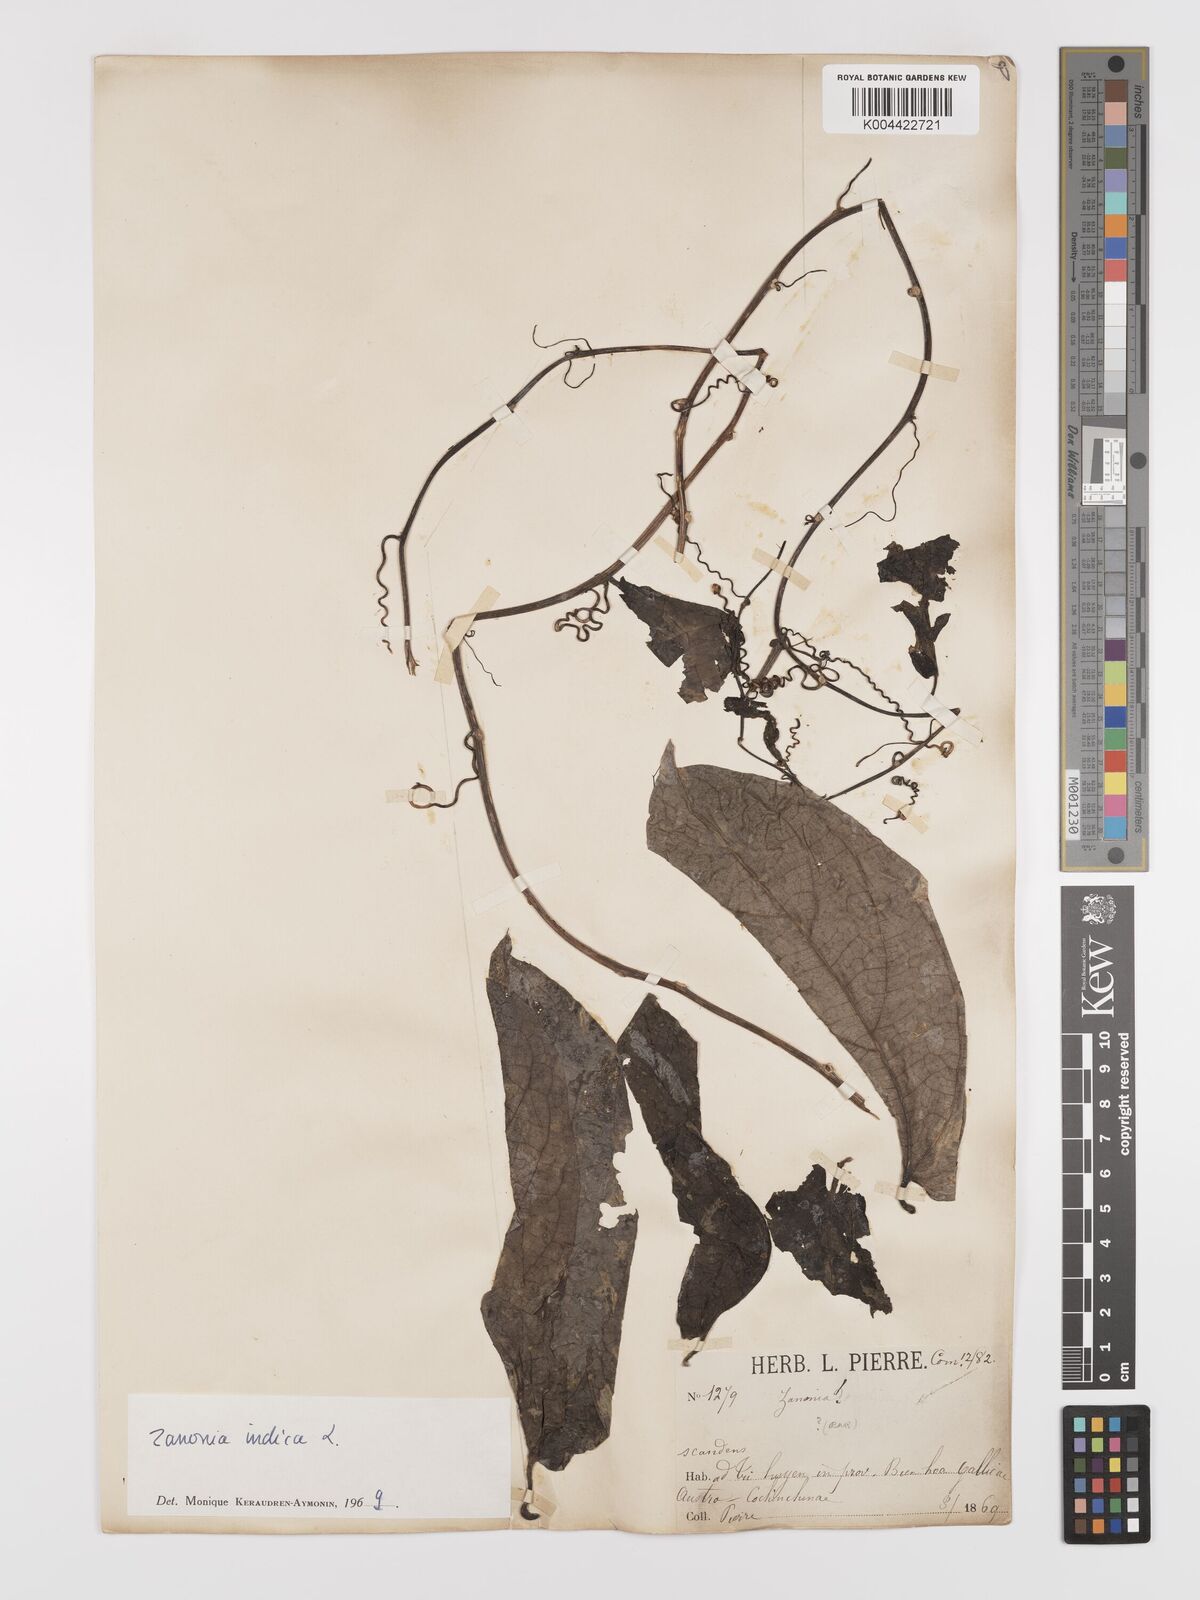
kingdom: Plantae
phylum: Tracheophyta
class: Magnoliopsida
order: Cucurbitales
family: Cucurbitaceae
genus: Zanonia
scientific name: Zanonia indica
